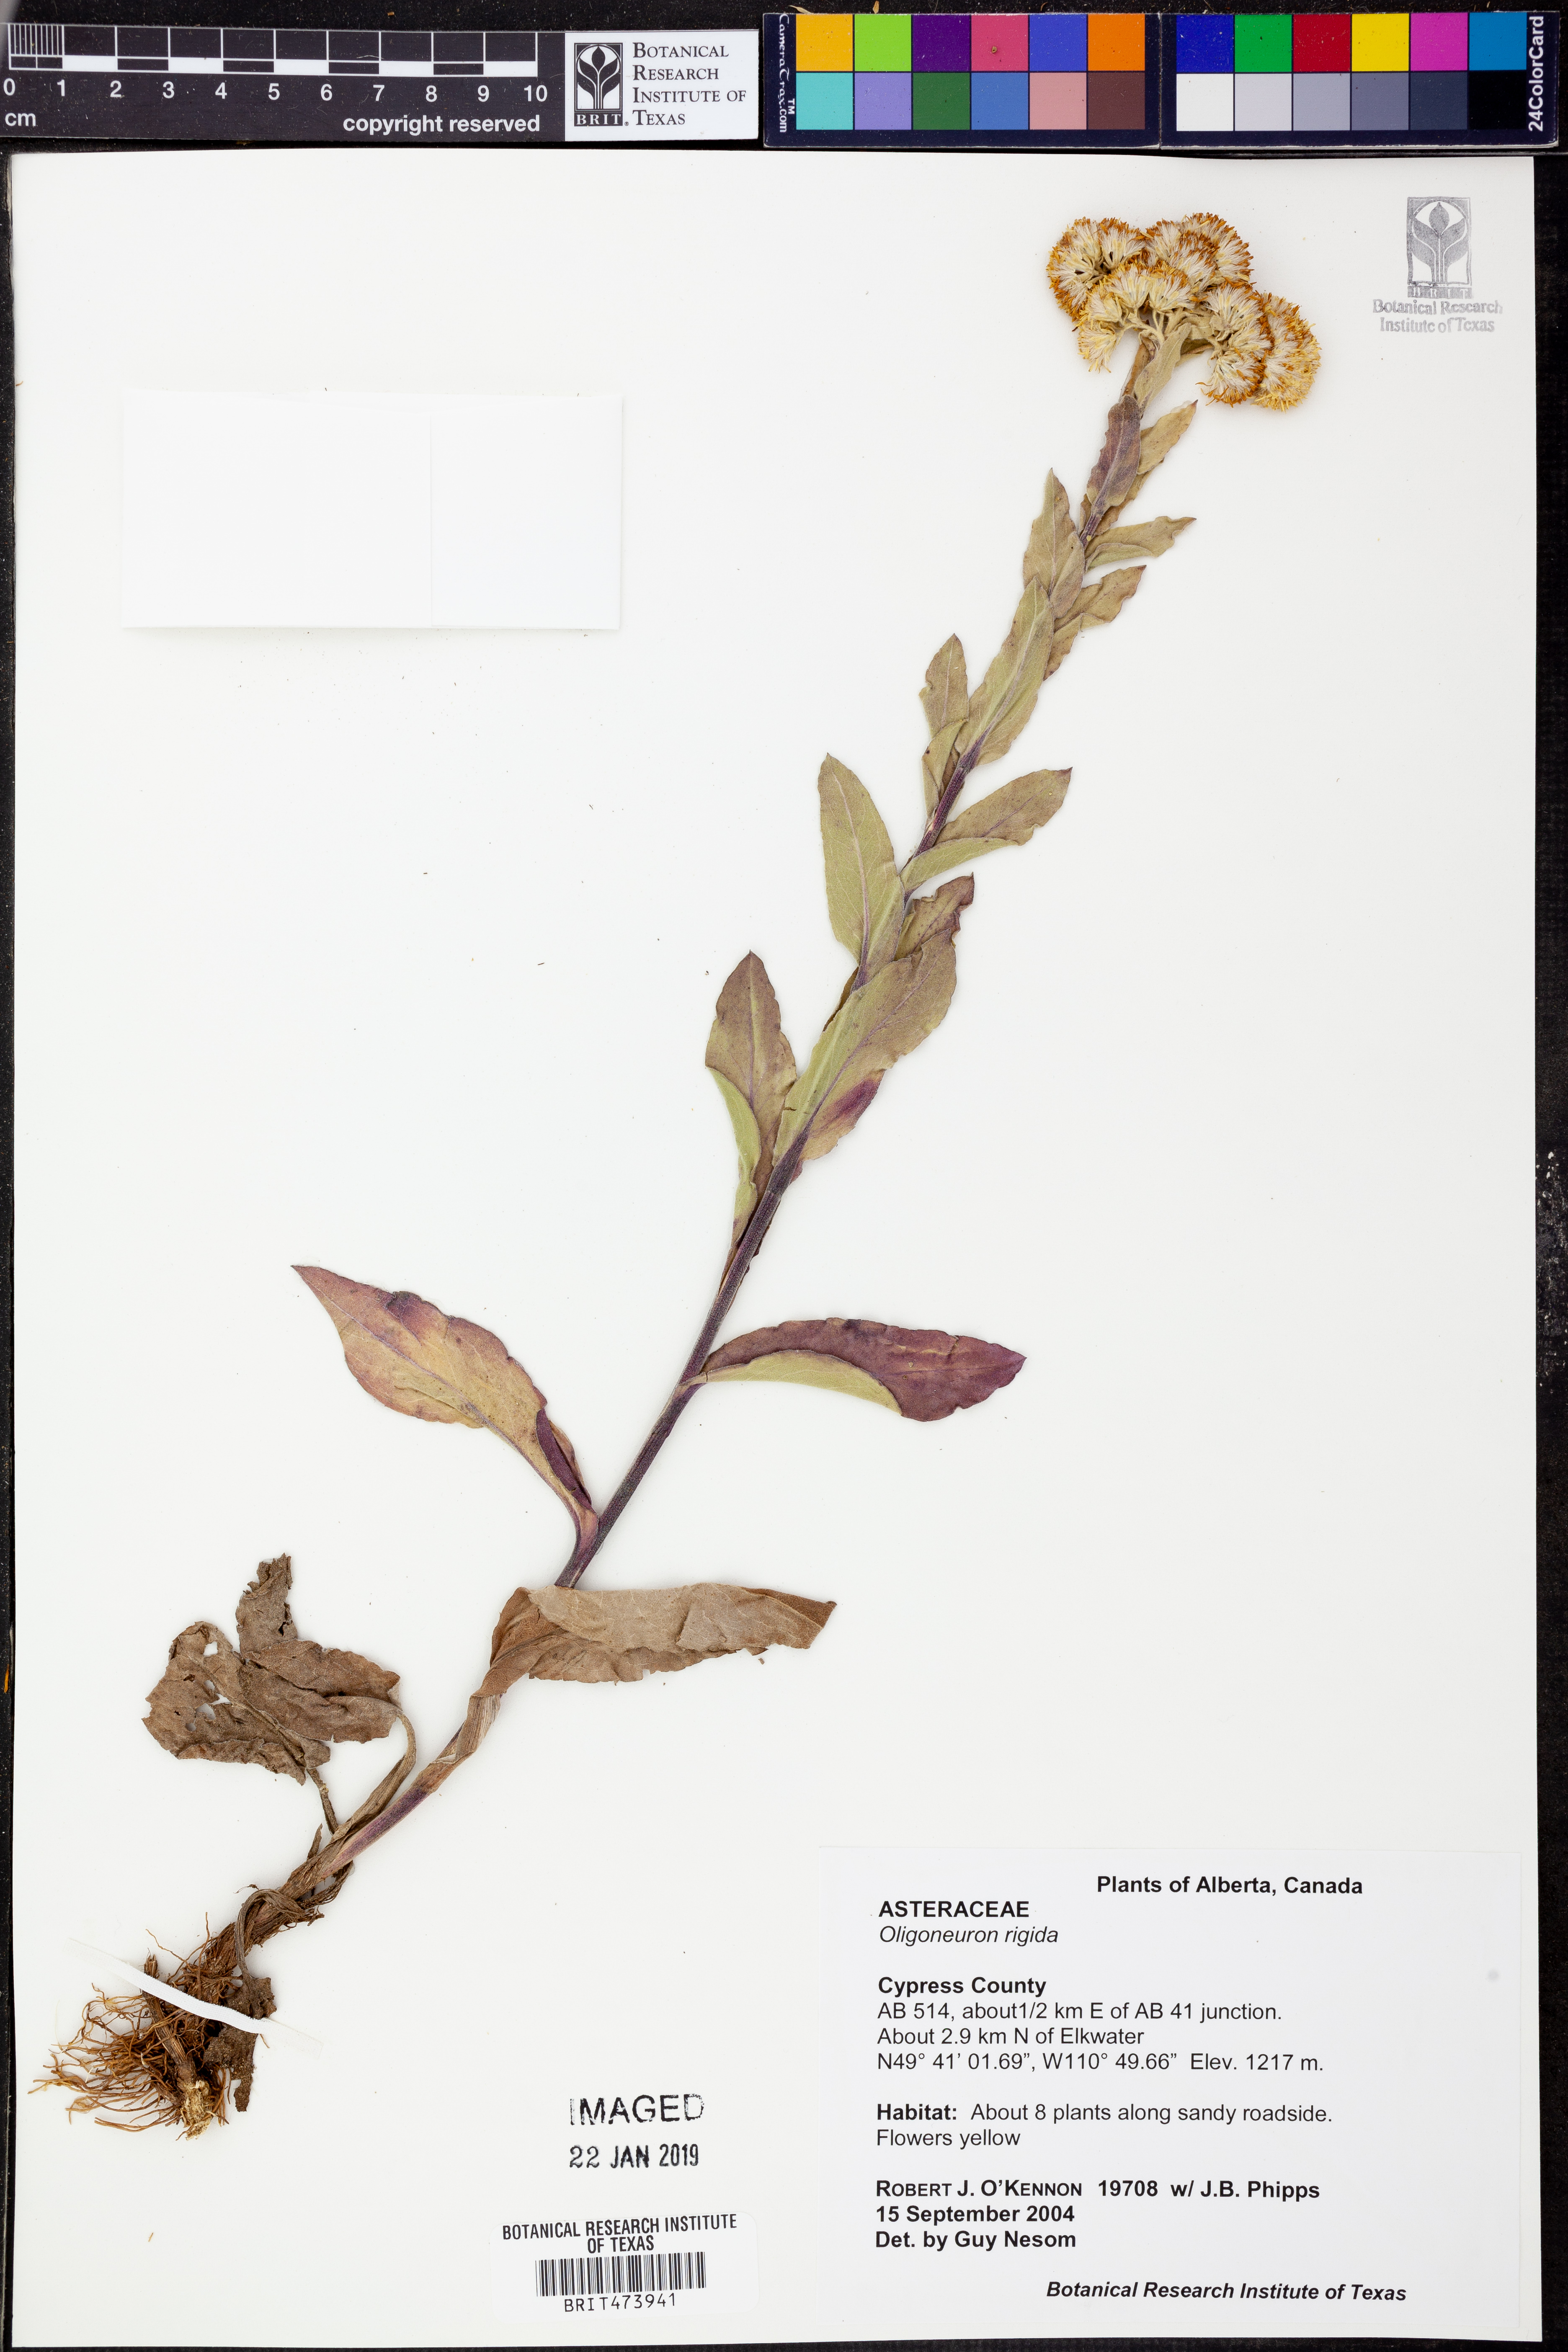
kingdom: Plantae
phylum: Tracheophyta
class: Magnoliopsida
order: Asterales
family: Asteraceae
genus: Solidago
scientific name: Solidago rigida
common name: Rigid goldenrod
